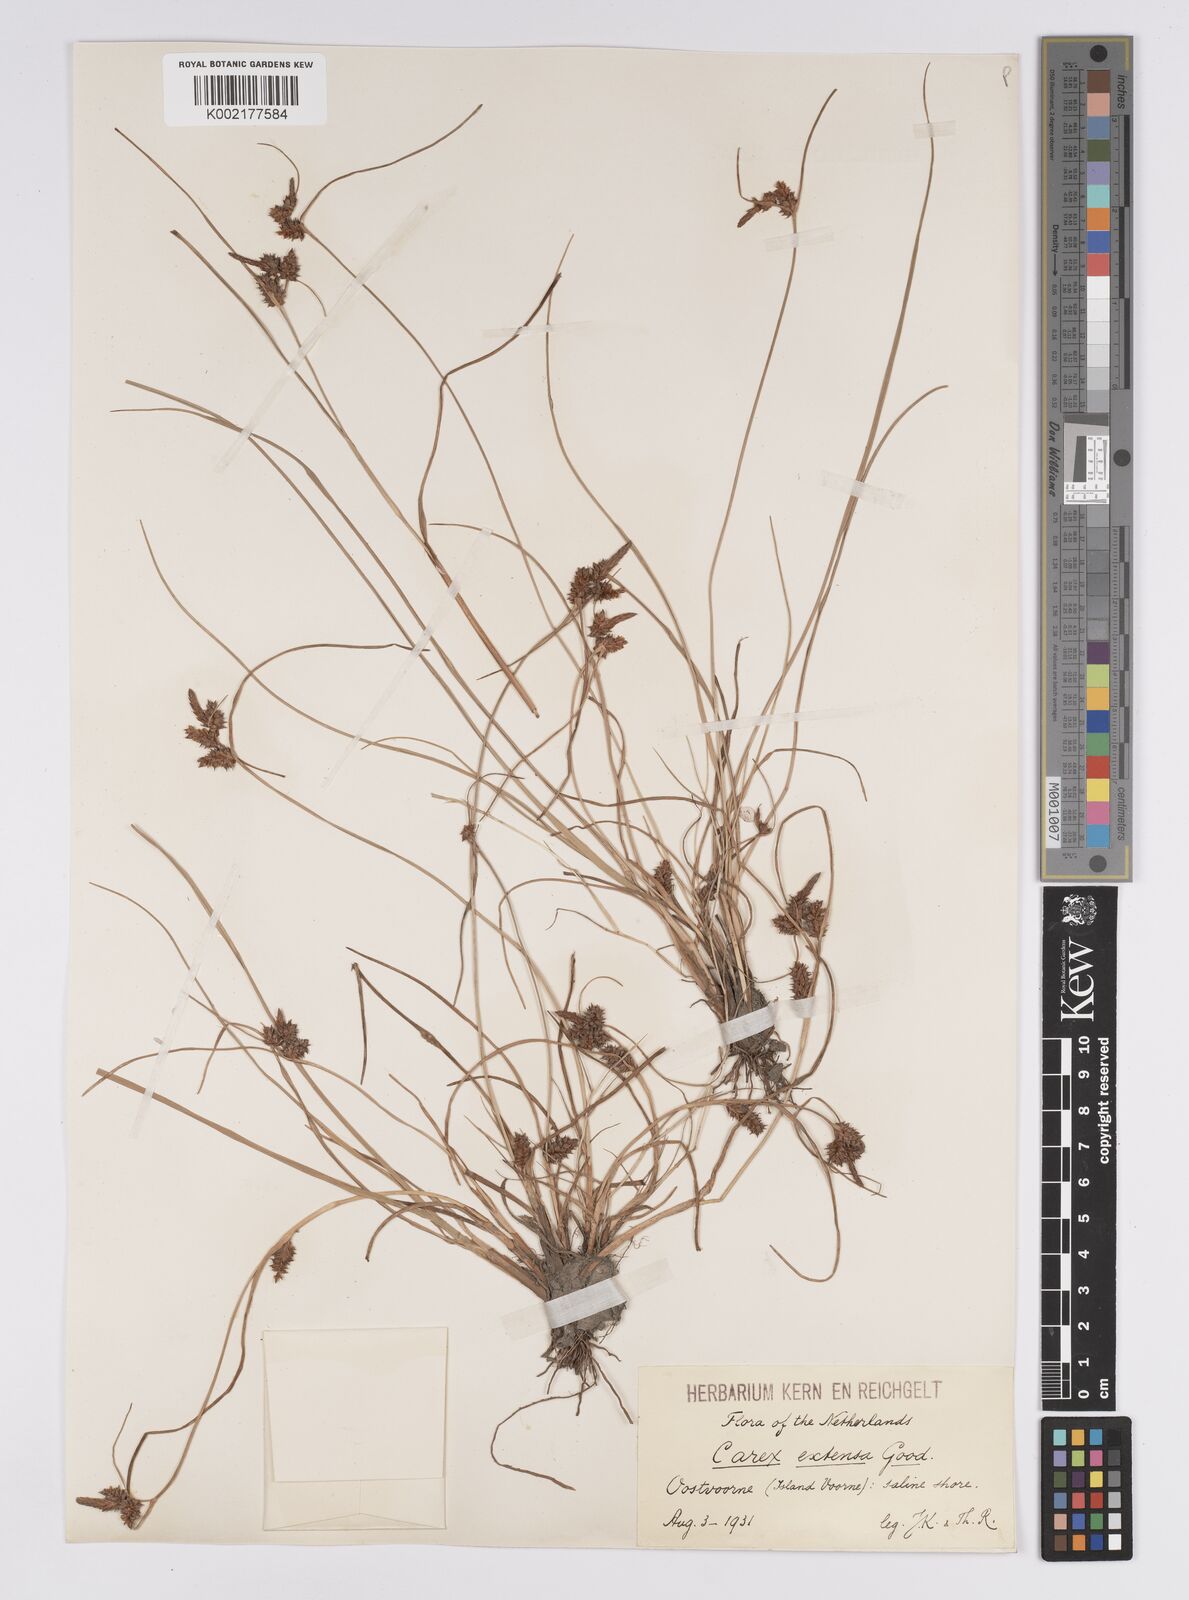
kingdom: Plantae
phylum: Tracheophyta
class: Liliopsida
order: Poales
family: Cyperaceae
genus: Carex
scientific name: Carex extensa
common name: Long-bracted sedge
